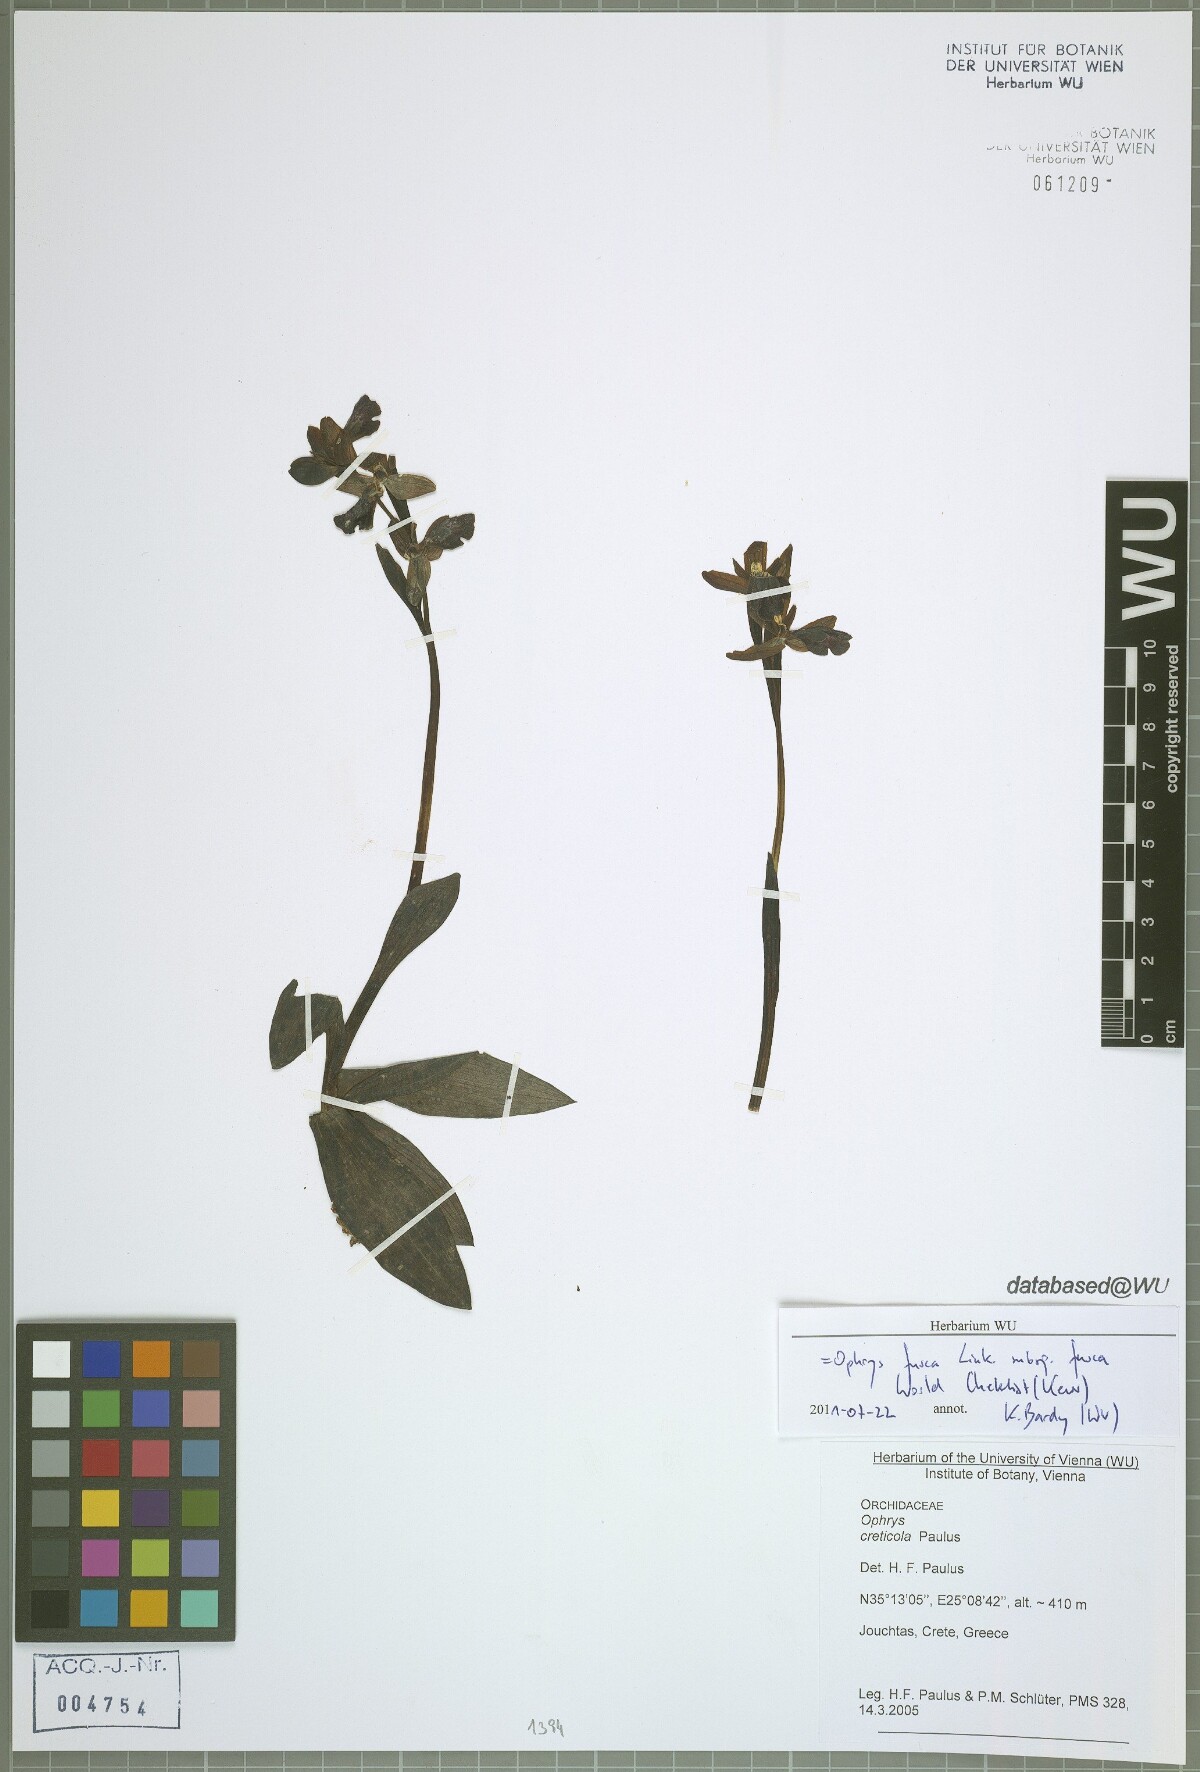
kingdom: Plantae
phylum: Tracheophyta
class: Liliopsida
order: Asparagales
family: Orchidaceae
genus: Ophrys
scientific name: Ophrys fusca
